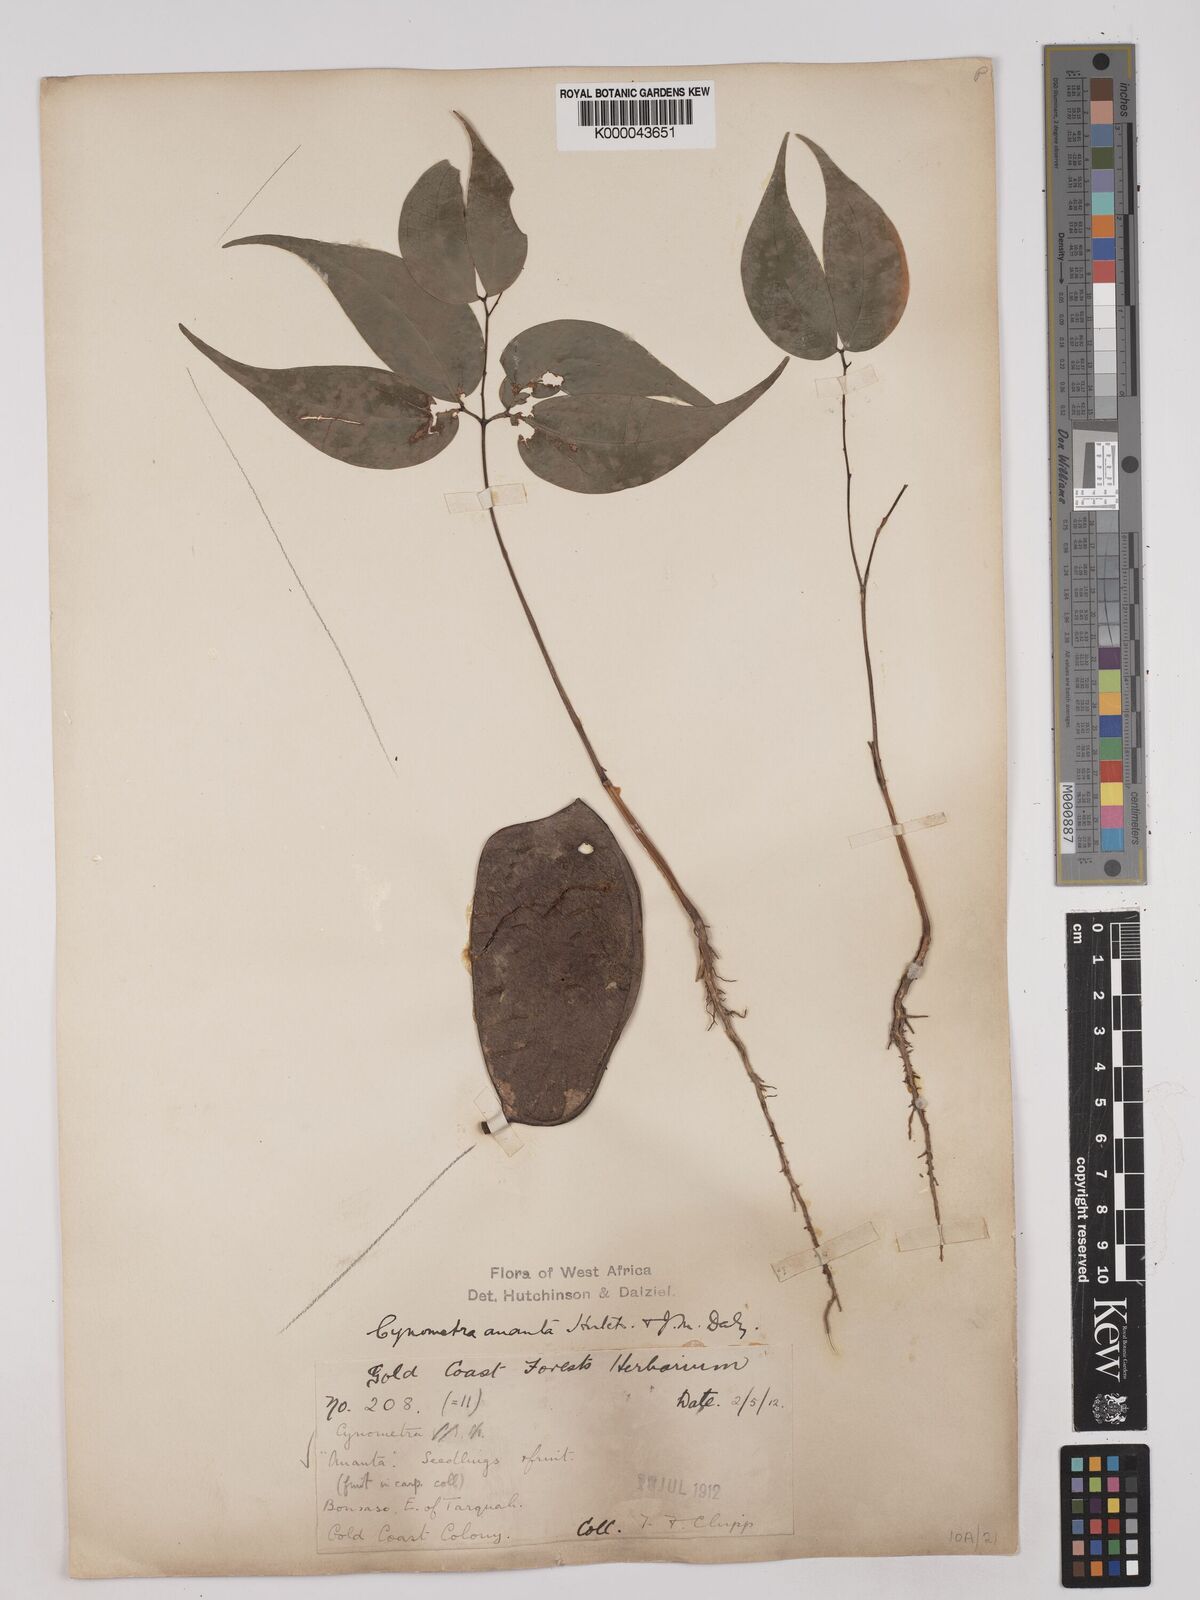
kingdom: Plantae
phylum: Tracheophyta
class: Magnoliopsida
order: Fabales
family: Fabaceae
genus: Cynometra
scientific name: Cynometra ananta
